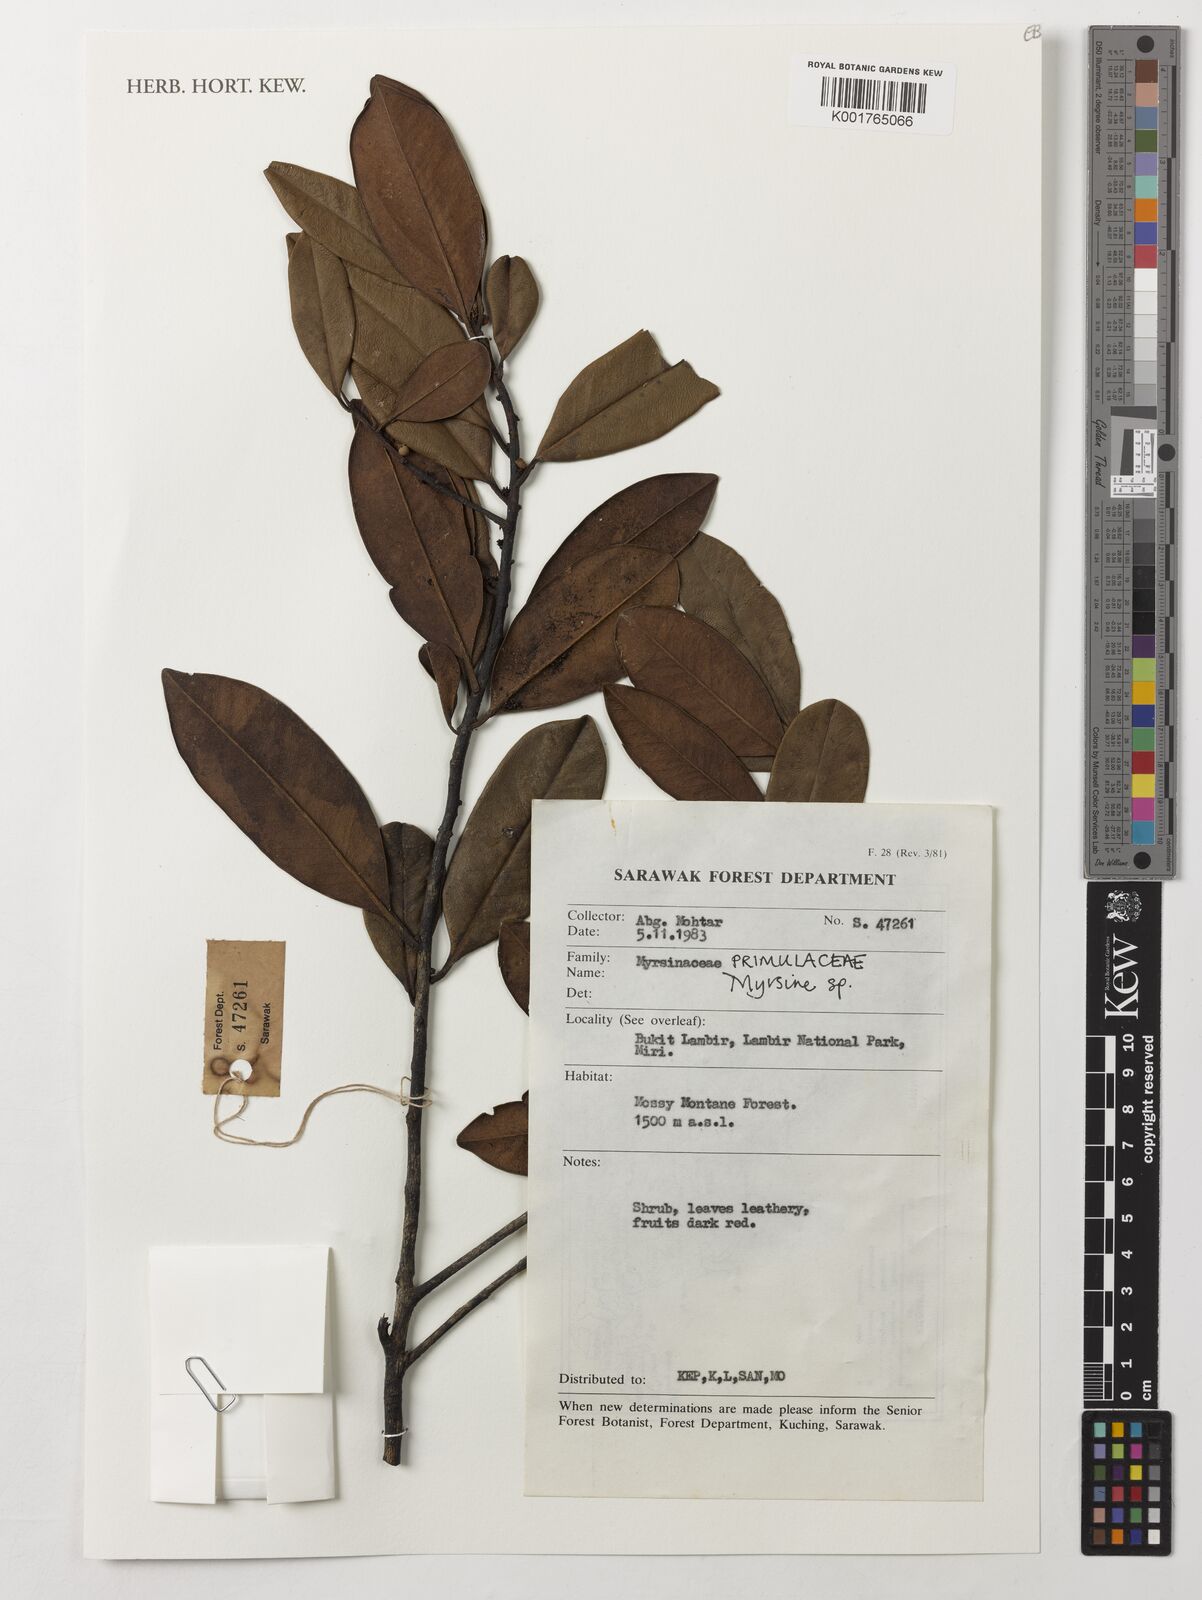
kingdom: Plantae
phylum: Tracheophyta
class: Magnoliopsida
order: Ericales
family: Primulaceae
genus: Myrsine
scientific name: Myrsine
